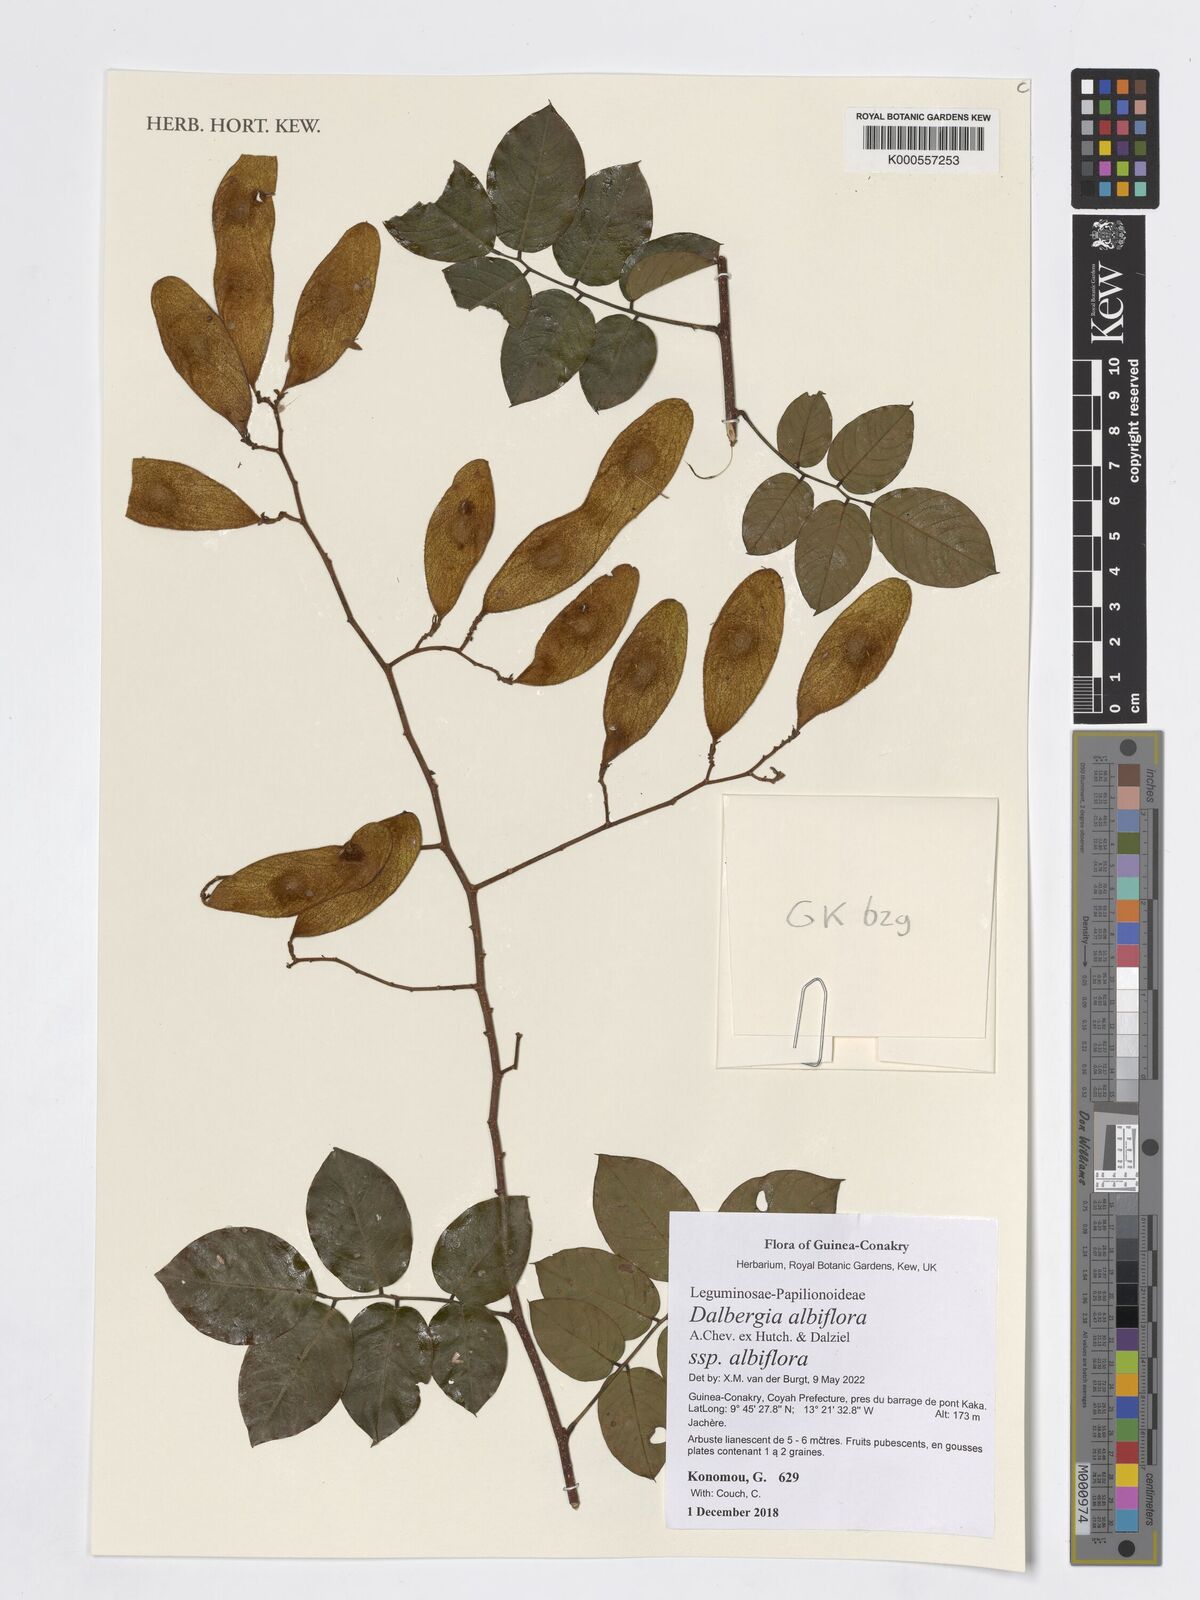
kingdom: Plantae
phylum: Tracheophyta
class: Magnoliopsida
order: Fabales
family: Fabaceae
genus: Dalbergia
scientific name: Dalbergia albiflora
